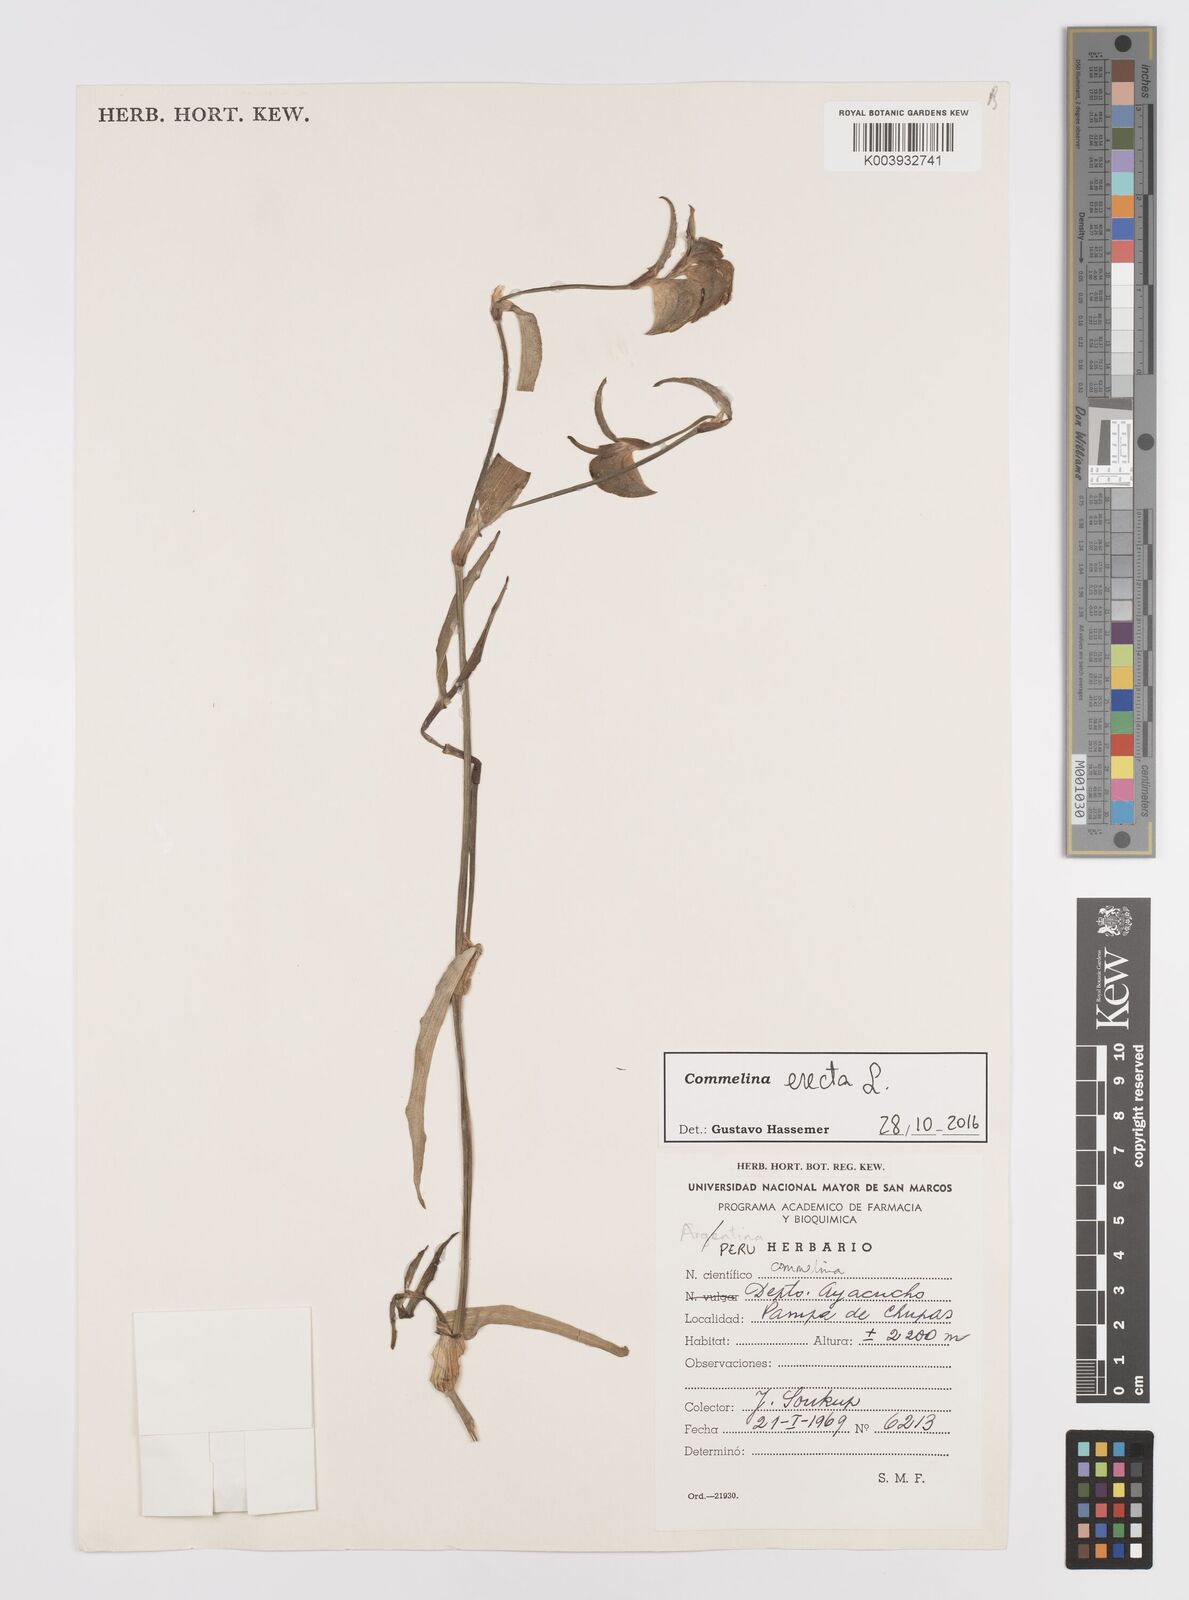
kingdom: Plantae
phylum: Tracheophyta
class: Liliopsida
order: Commelinales
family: Commelinaceae
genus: Commelina
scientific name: Commelina erecta
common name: Blousel blommetjie
